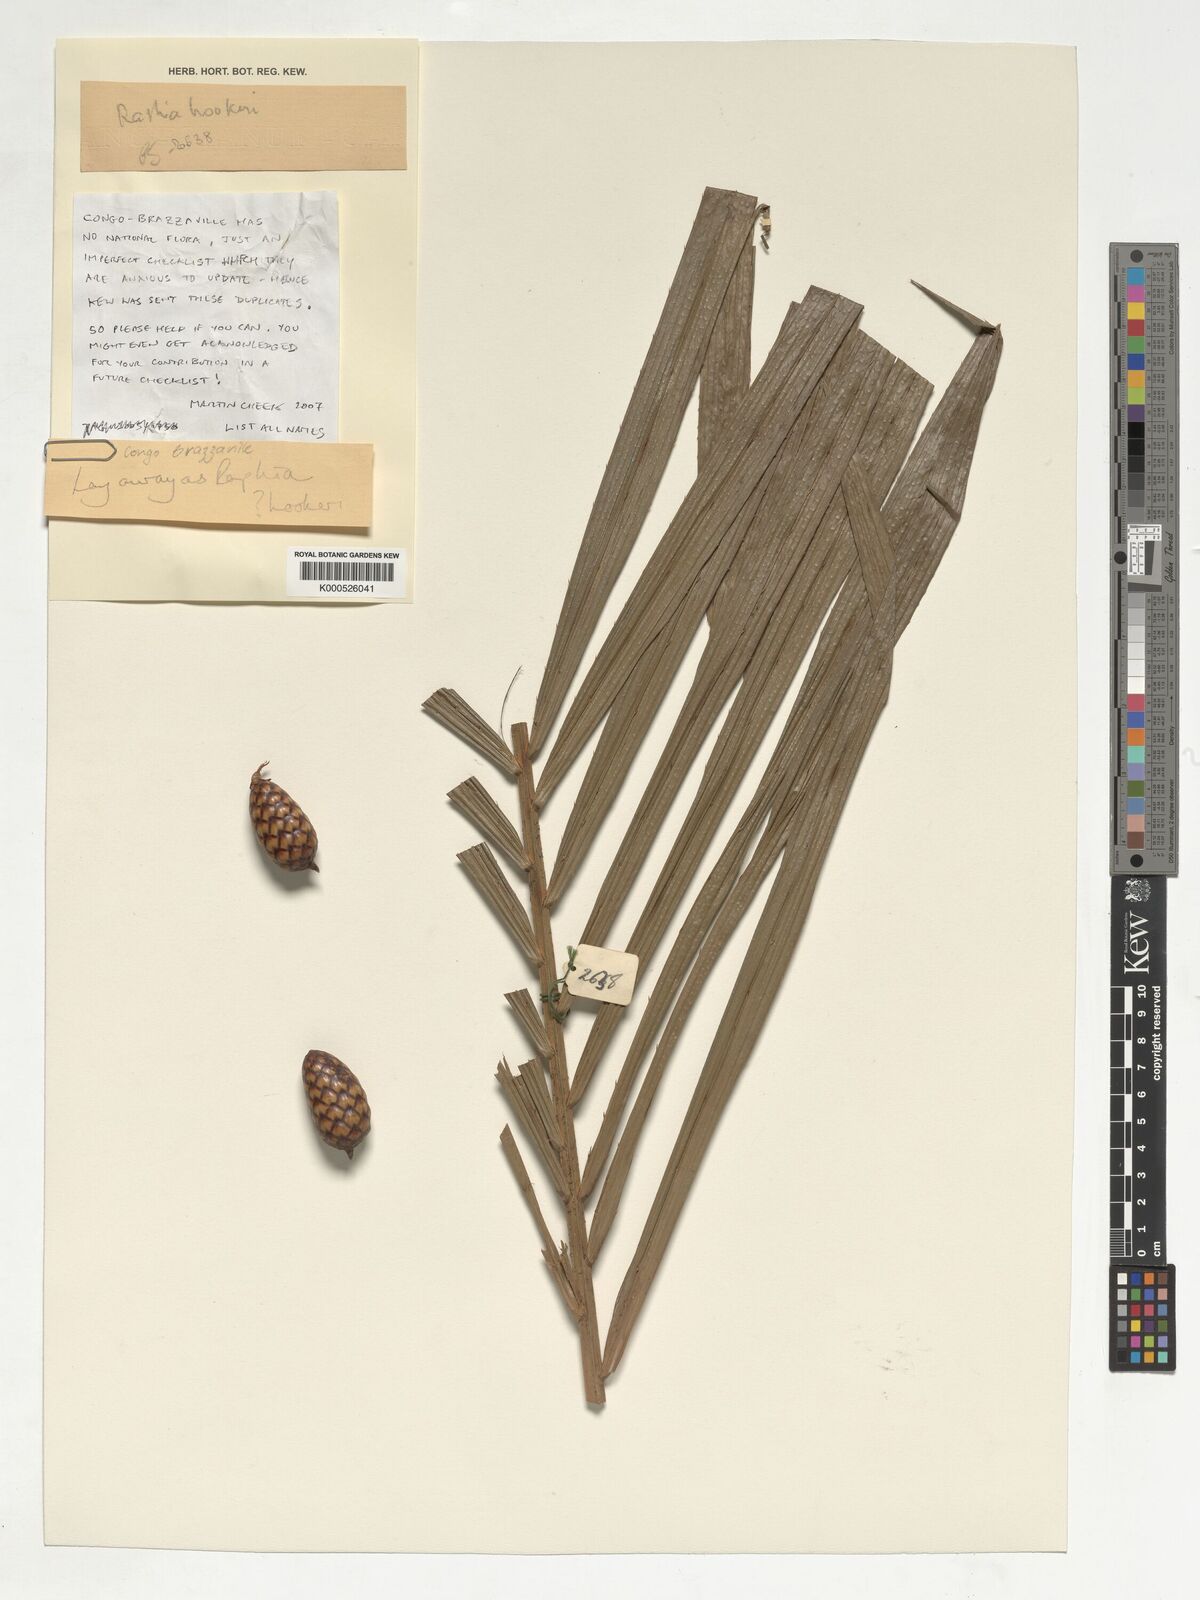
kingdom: Plantae
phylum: Tracheophyta
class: Liliopsida
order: Arecales
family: Arecaceae
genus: Raphia
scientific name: Raphia hookeri
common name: Wine palm
